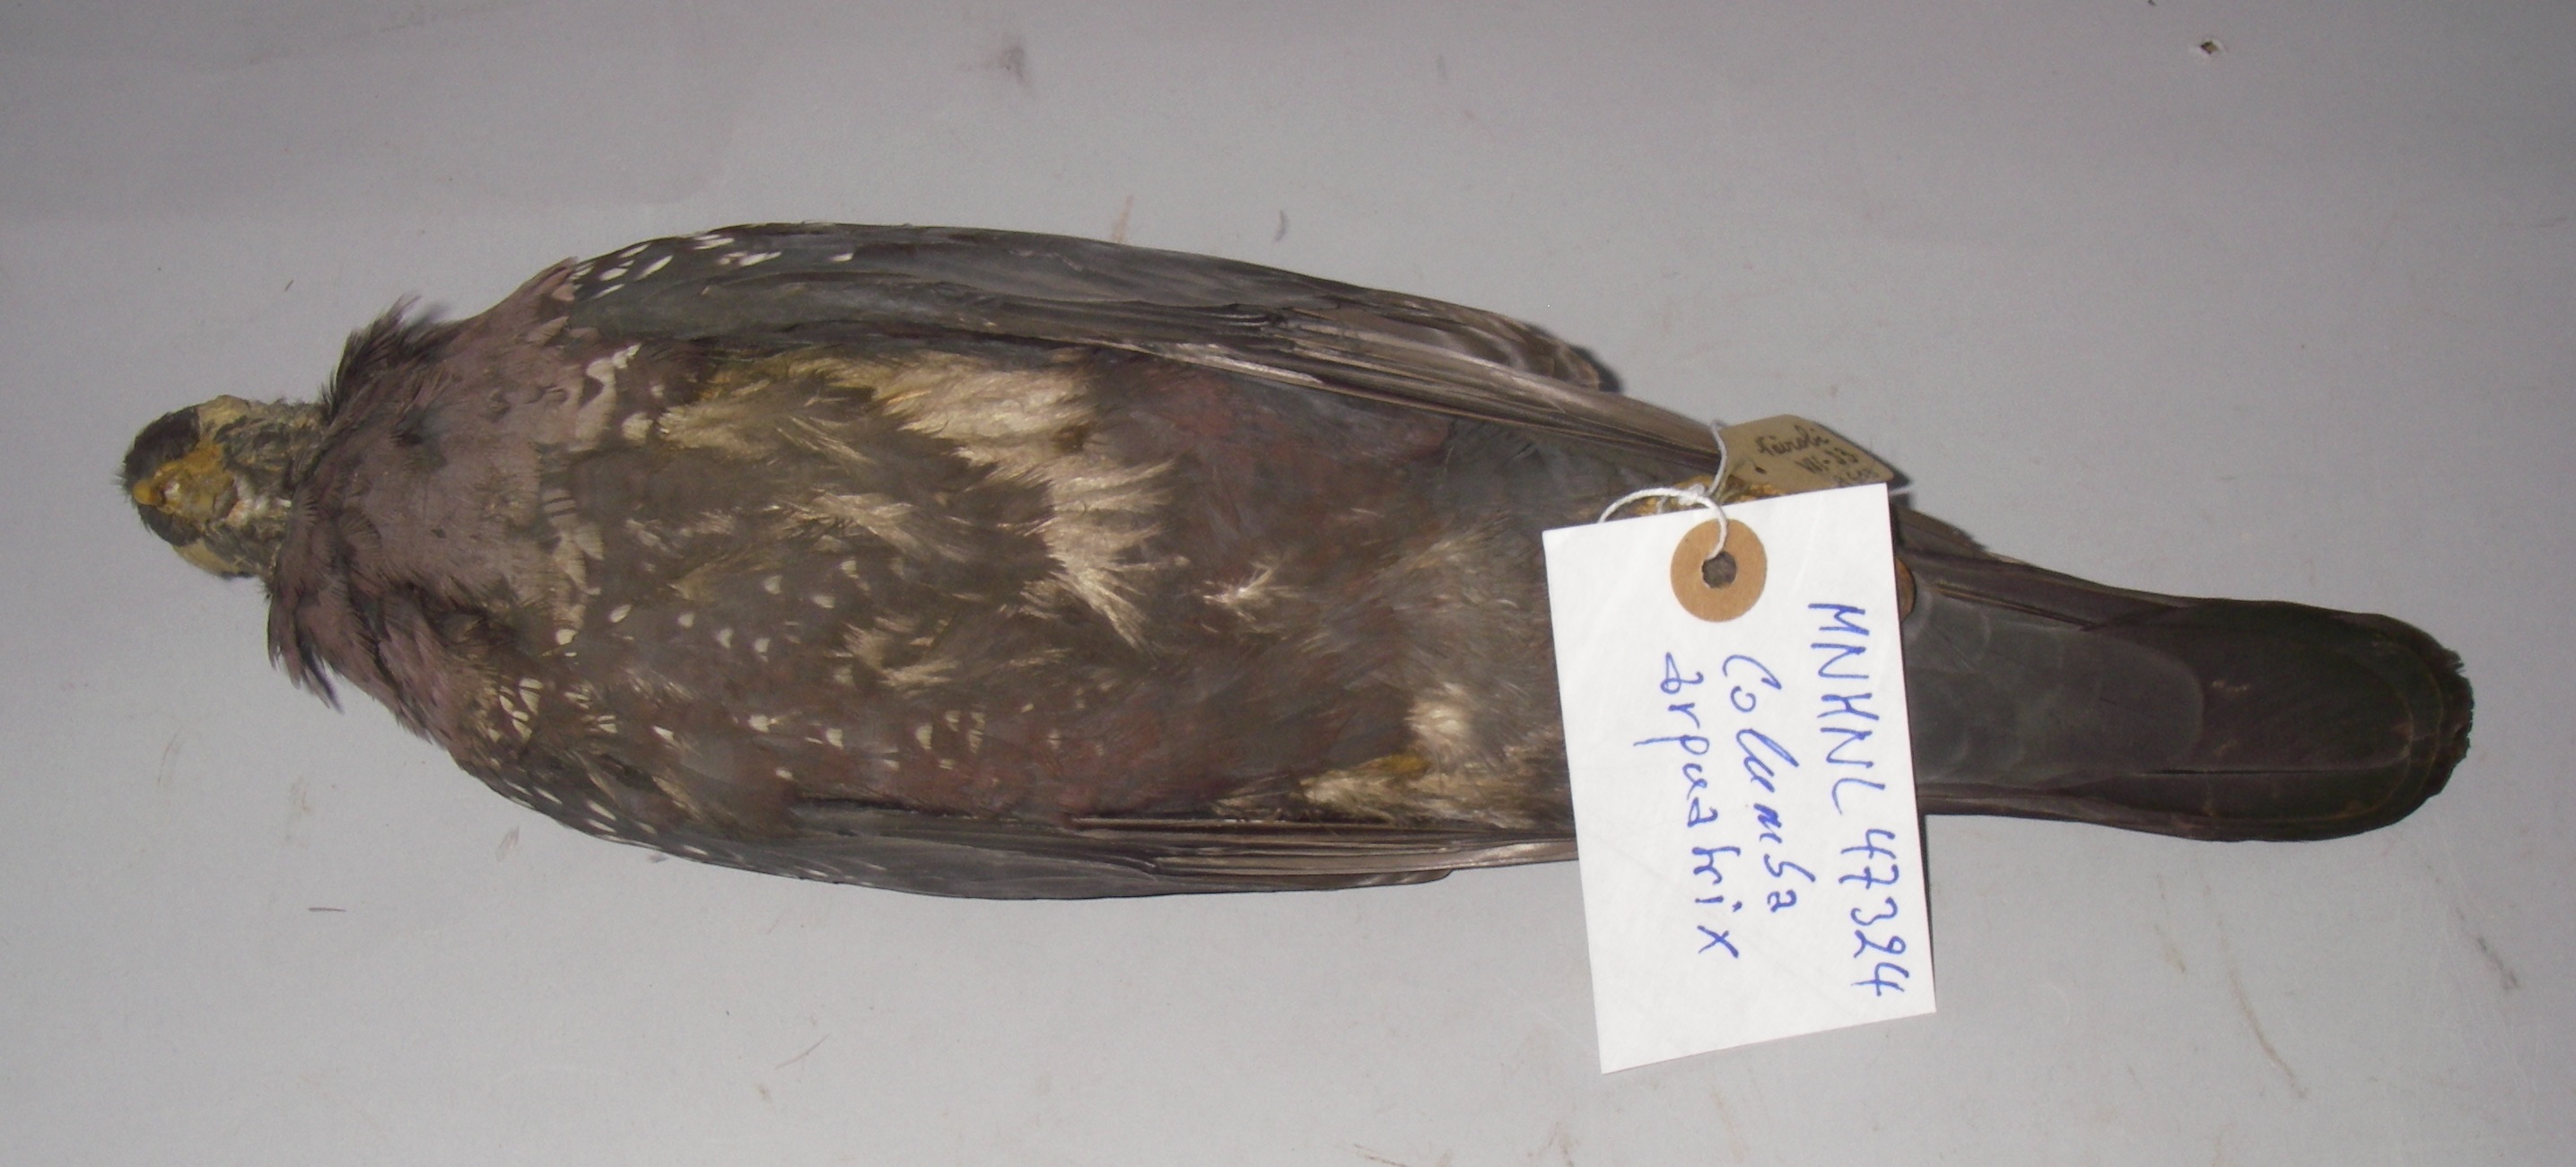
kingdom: Animalia
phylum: Chordata
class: Aves
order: Columbiformes
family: Columbidae
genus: Columba
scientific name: Columba arquatrix
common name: African olive pigeon
